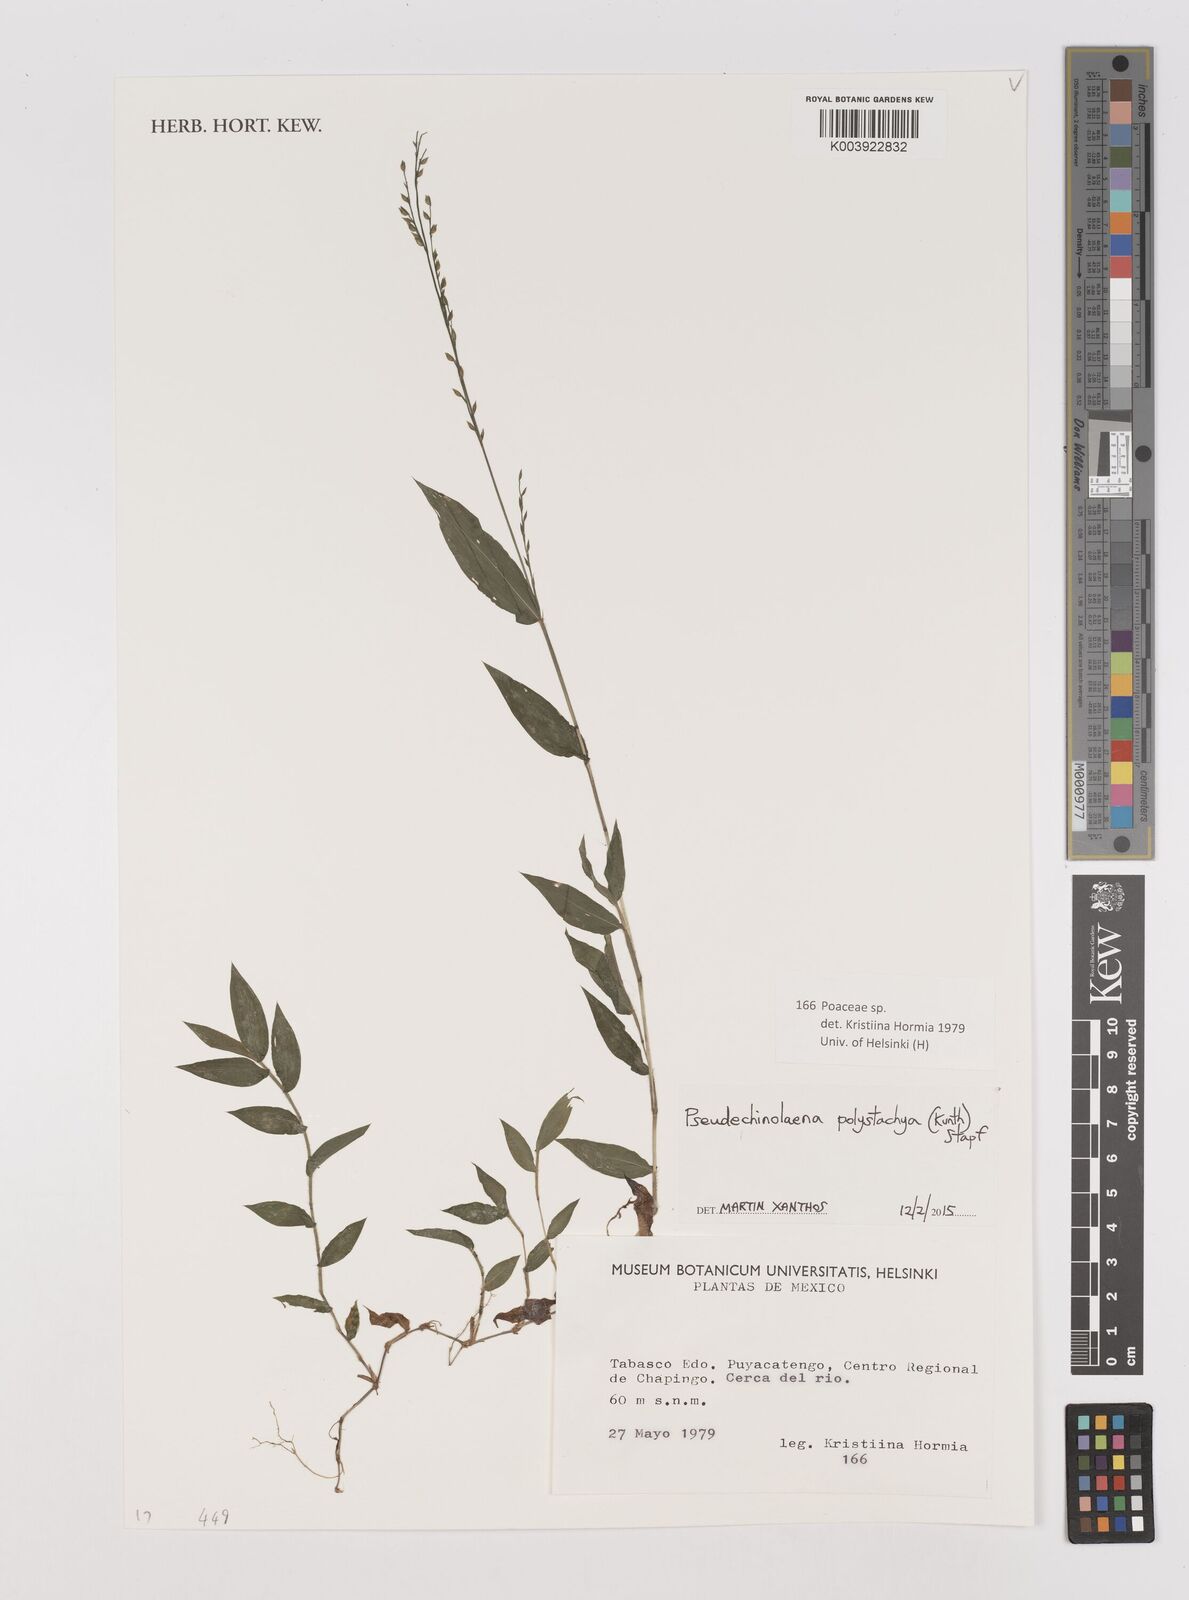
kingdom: Plantae
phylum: Tracheophyta
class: Liliopsida
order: Poales
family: Poaceae
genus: Pseudechinolaena
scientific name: Pseudechinolaena polystachya
